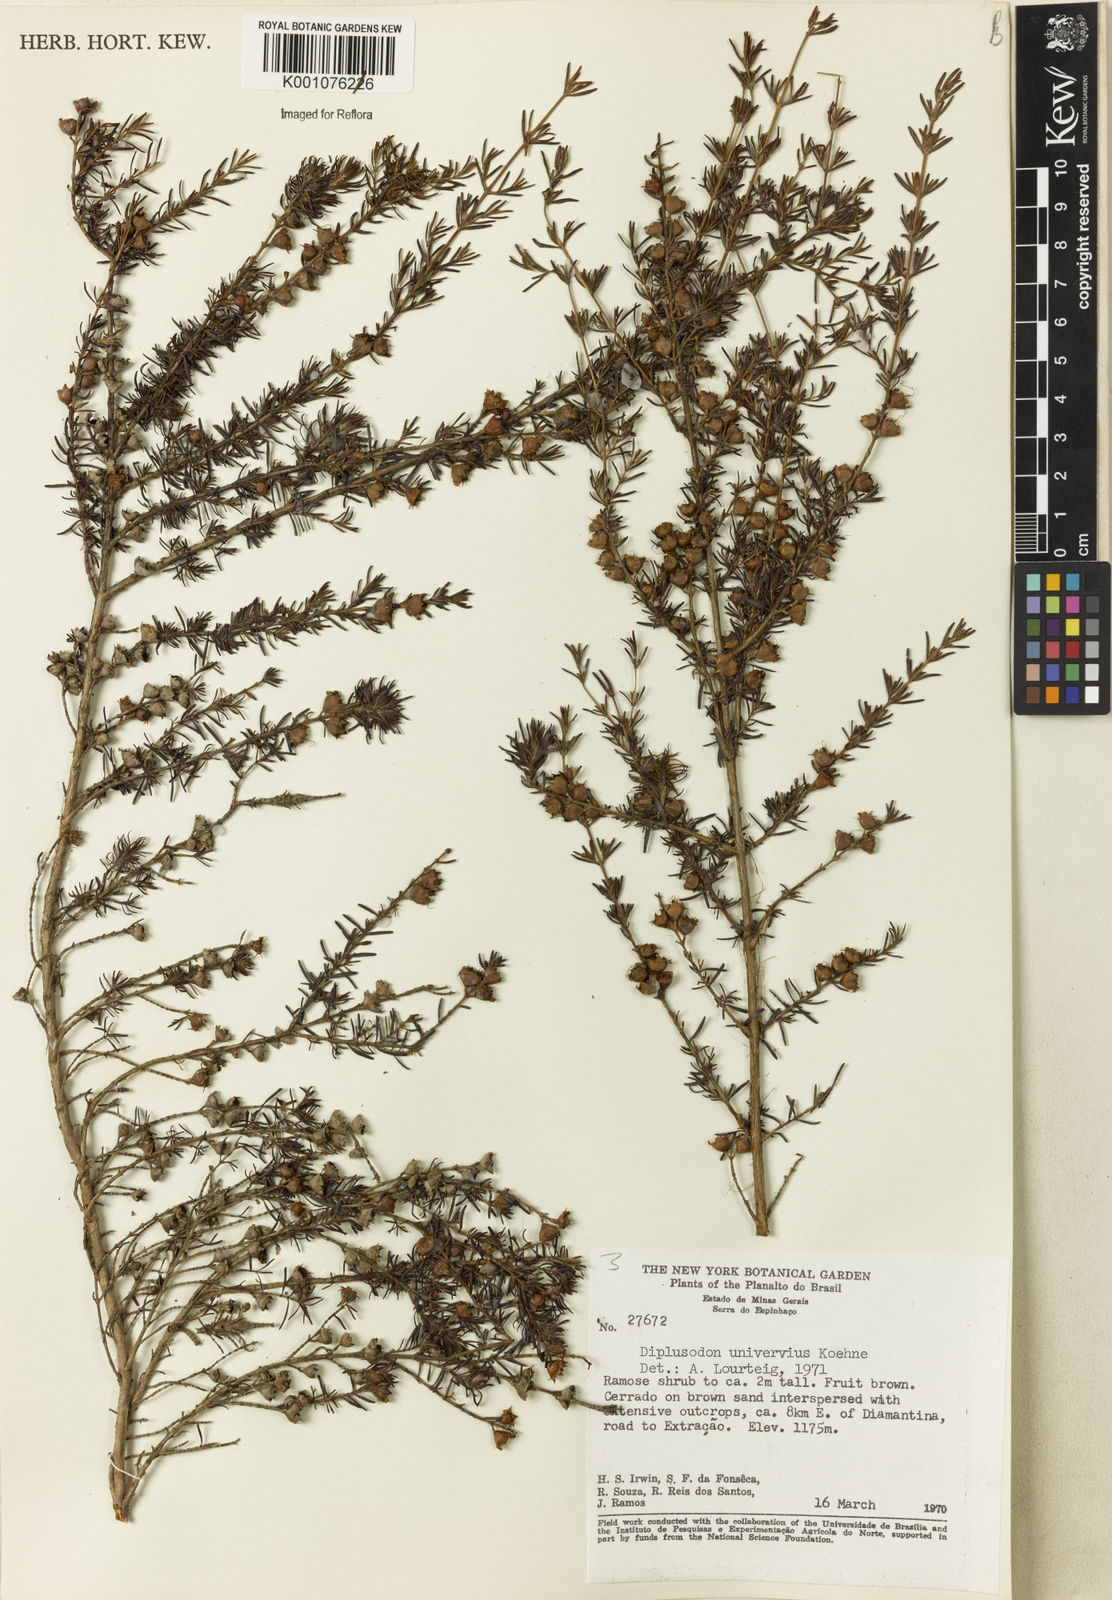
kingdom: Plantae
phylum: Tracheophyta
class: Magnoliopsida
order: Myrtales
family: Lythraceae
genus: Diplusodon
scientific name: Diplusodon uninervius
